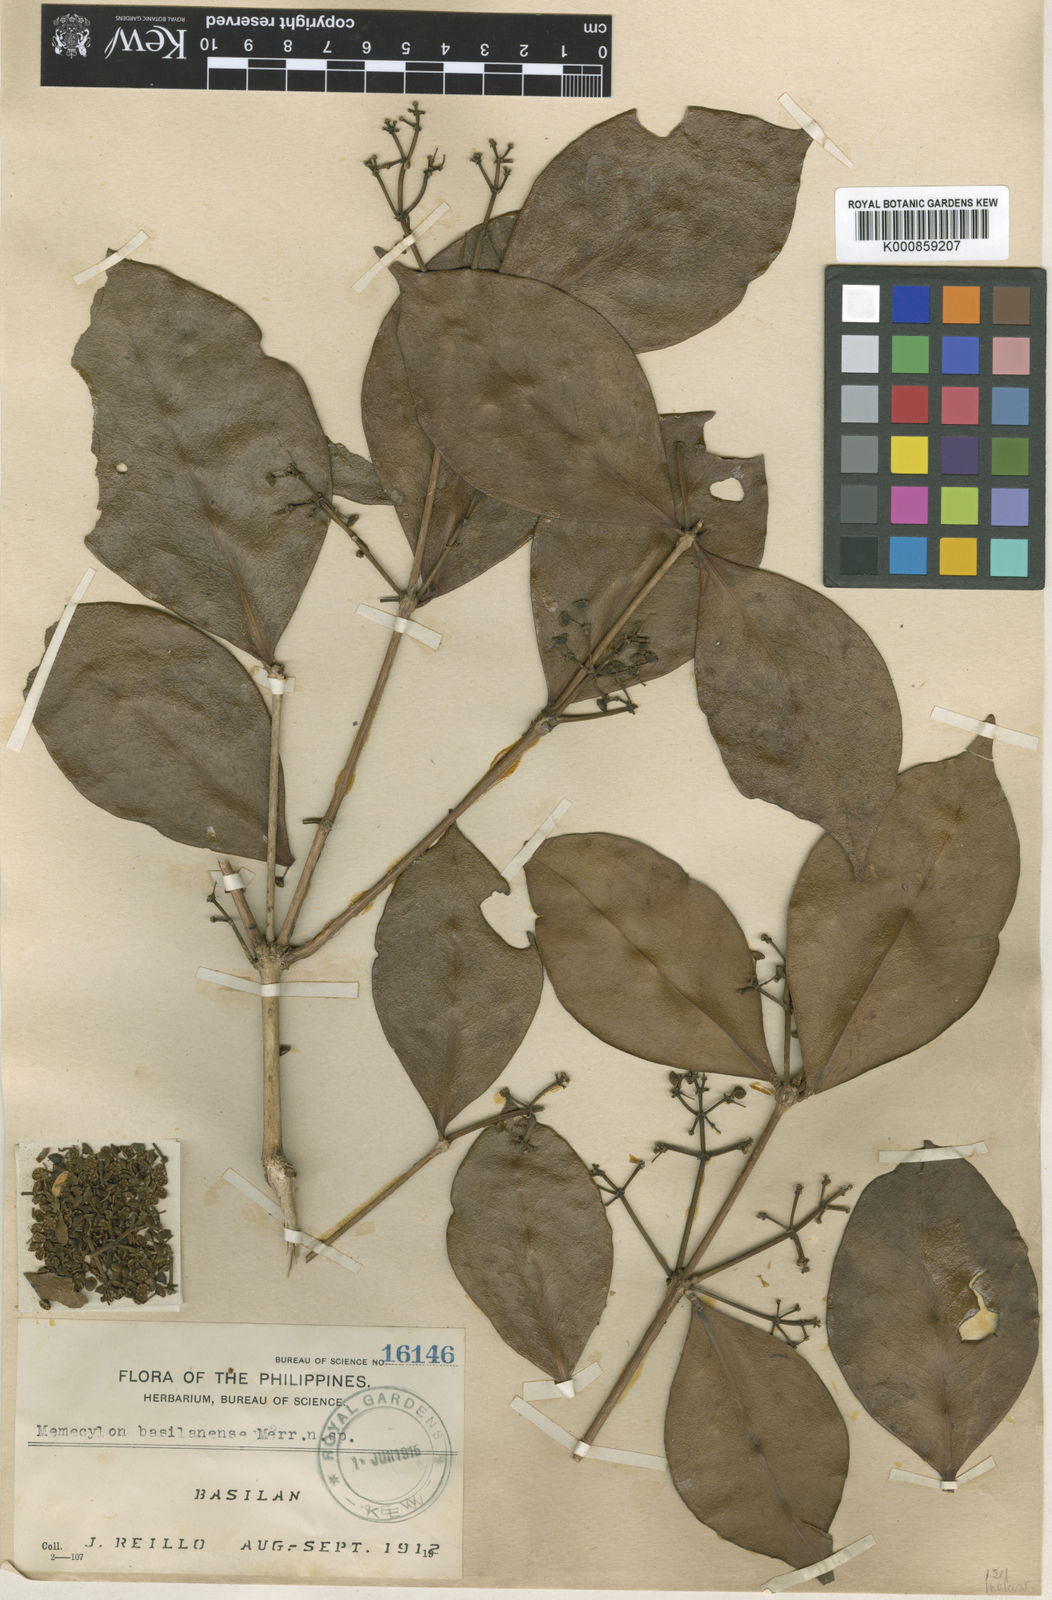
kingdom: Plantae
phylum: Tracheophyta
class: Magnoliopsida
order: Myrtales
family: Melastomataceae
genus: Memecylon
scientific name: Memecylon basilanense
